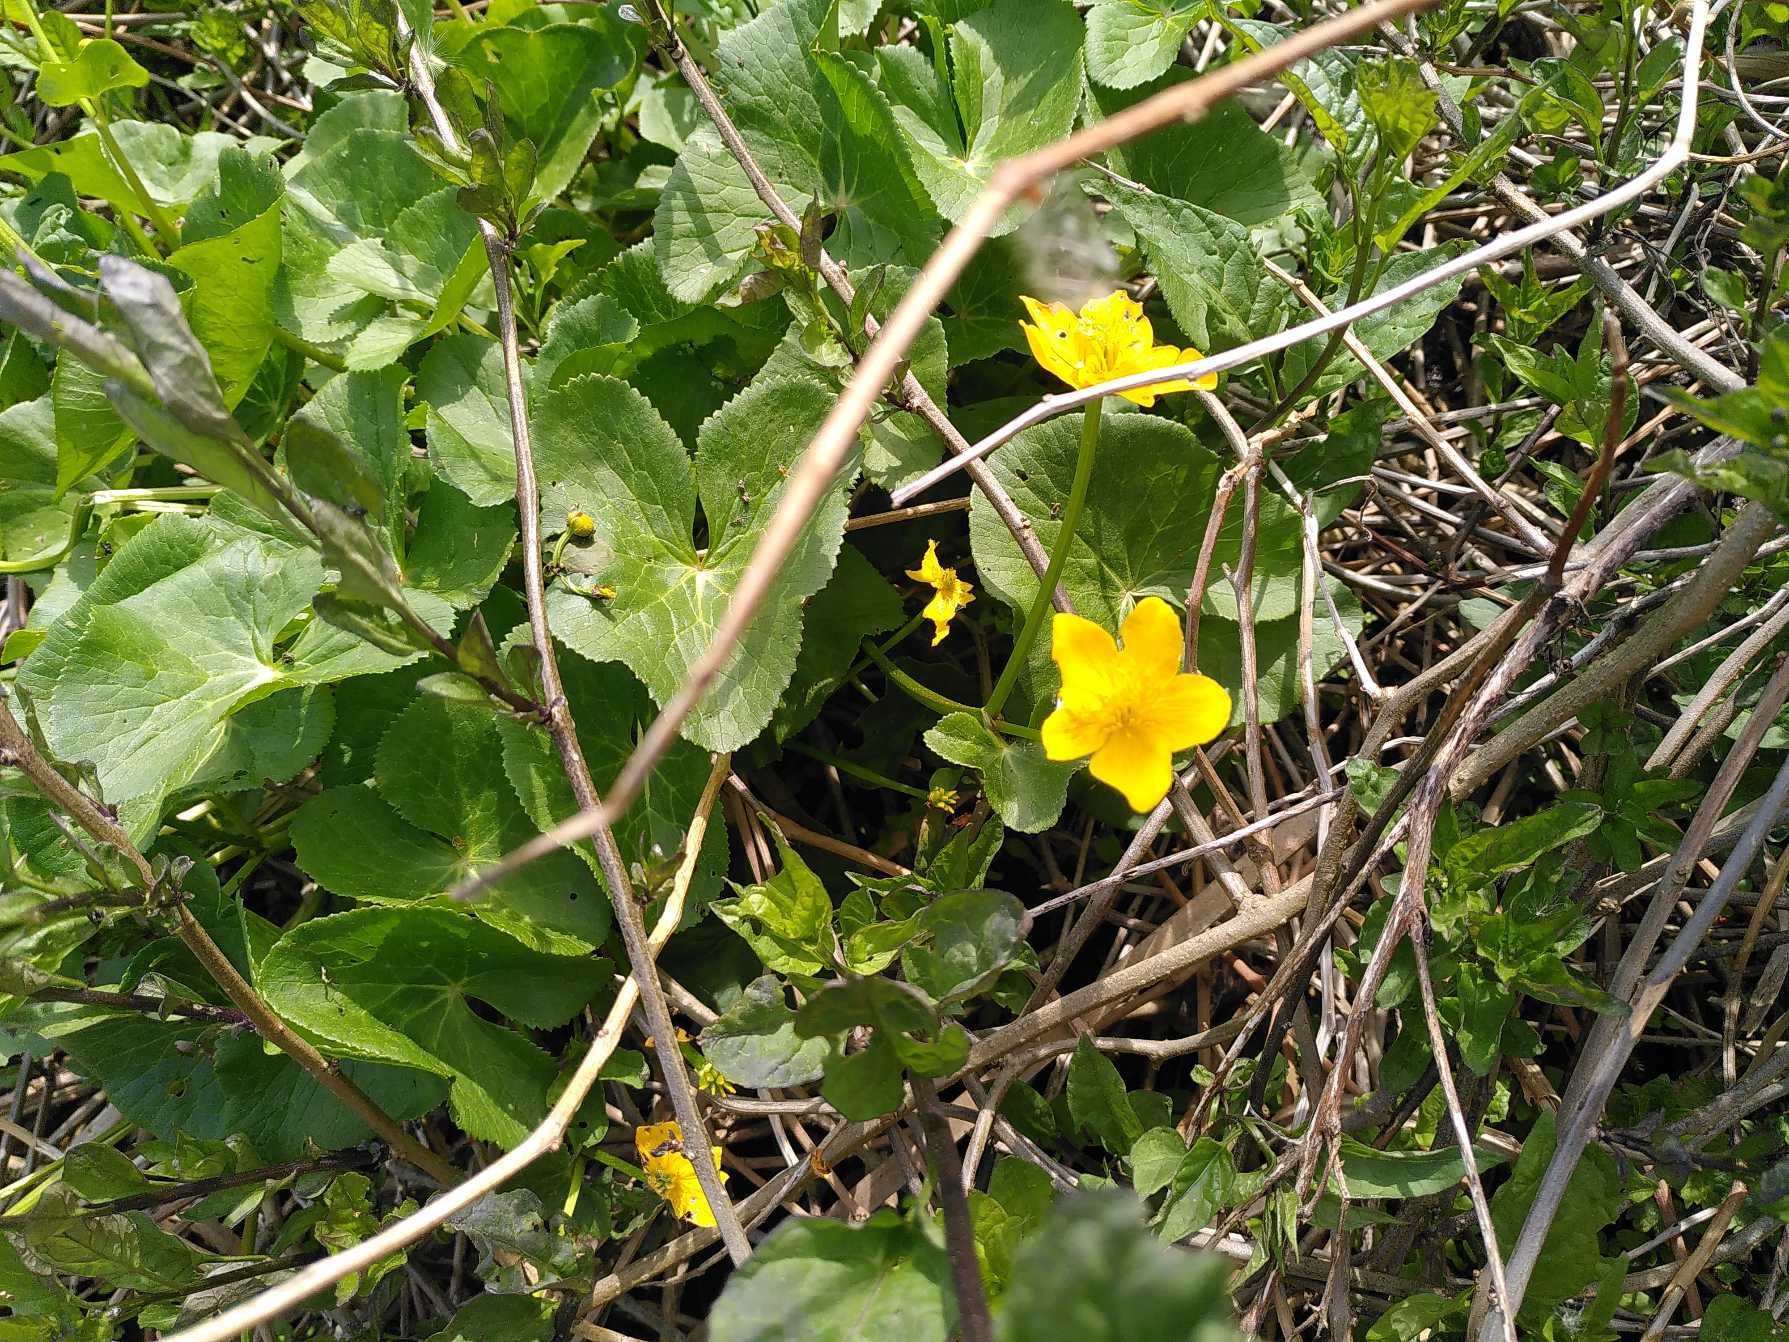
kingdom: Plantae
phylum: Tracheophyta
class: Magnoliopsida
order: Ranunculales
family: Ranunculaceae
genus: Caltha
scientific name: Caltha palustris
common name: Eng-kabbeleje
